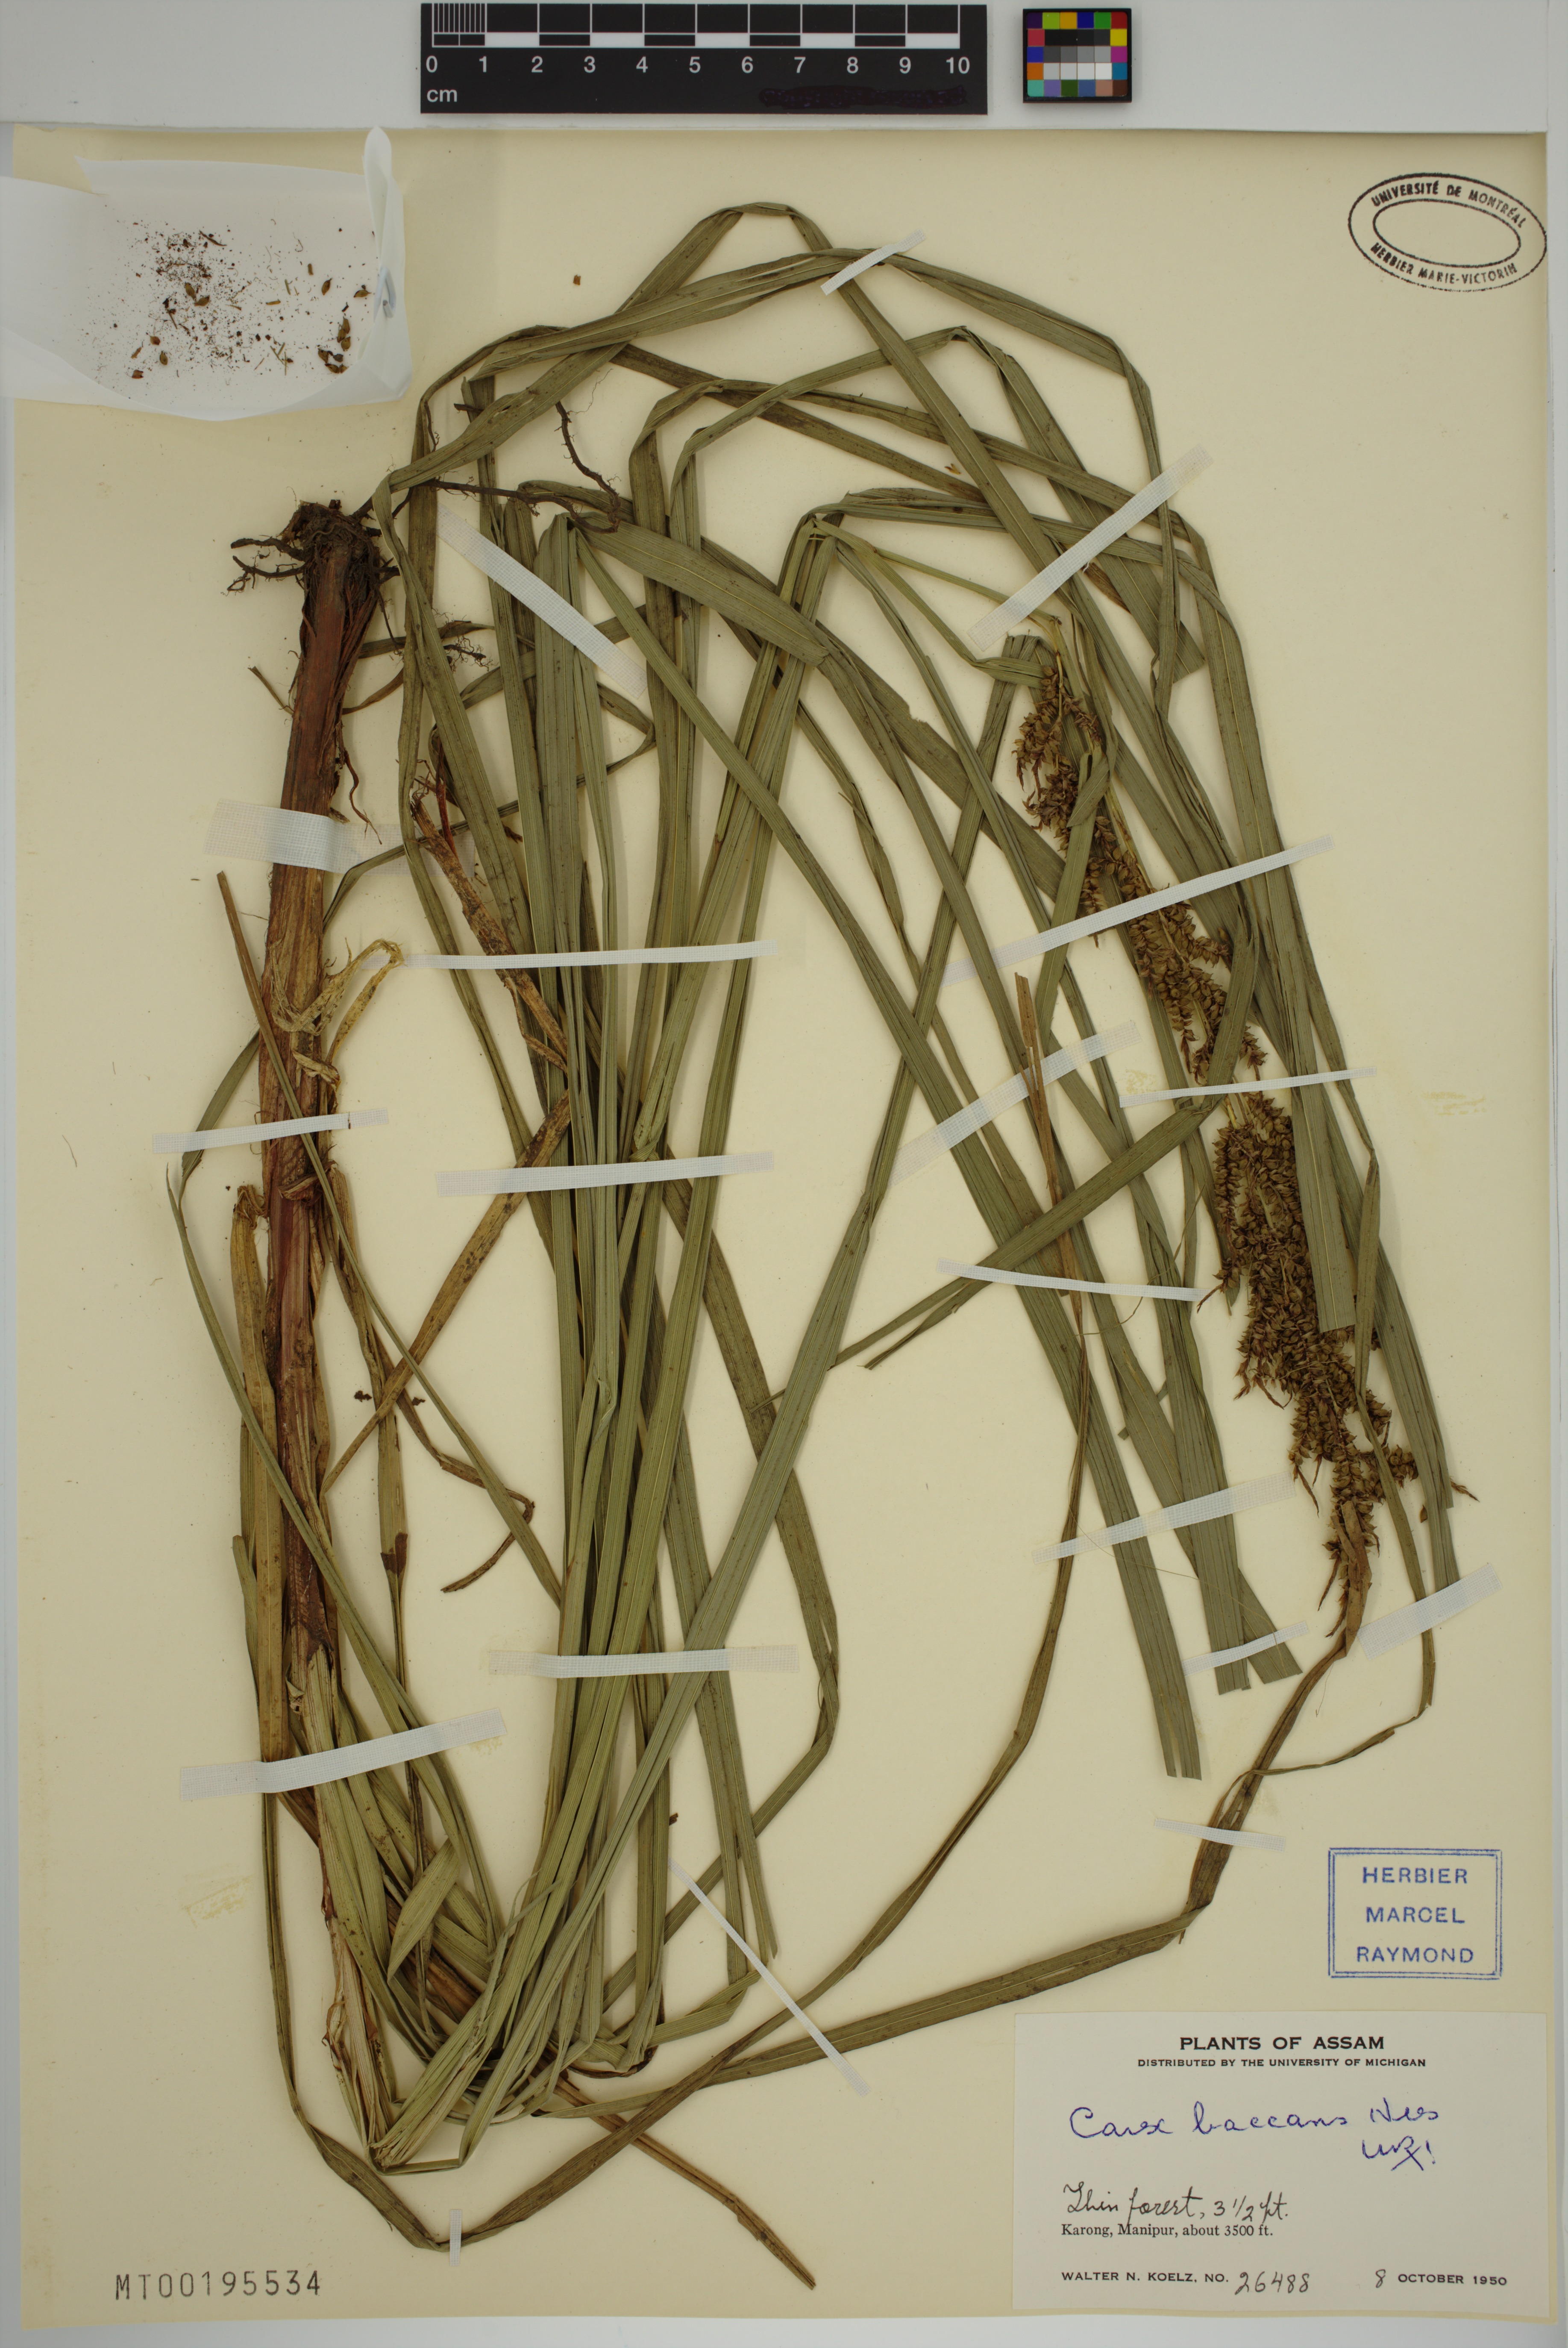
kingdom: Plantae
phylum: Tracheophyta
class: Liliopsida
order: Poales
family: Cyperaceae
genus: Carex
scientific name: Carex baccans
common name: Crimson seeded sedge
